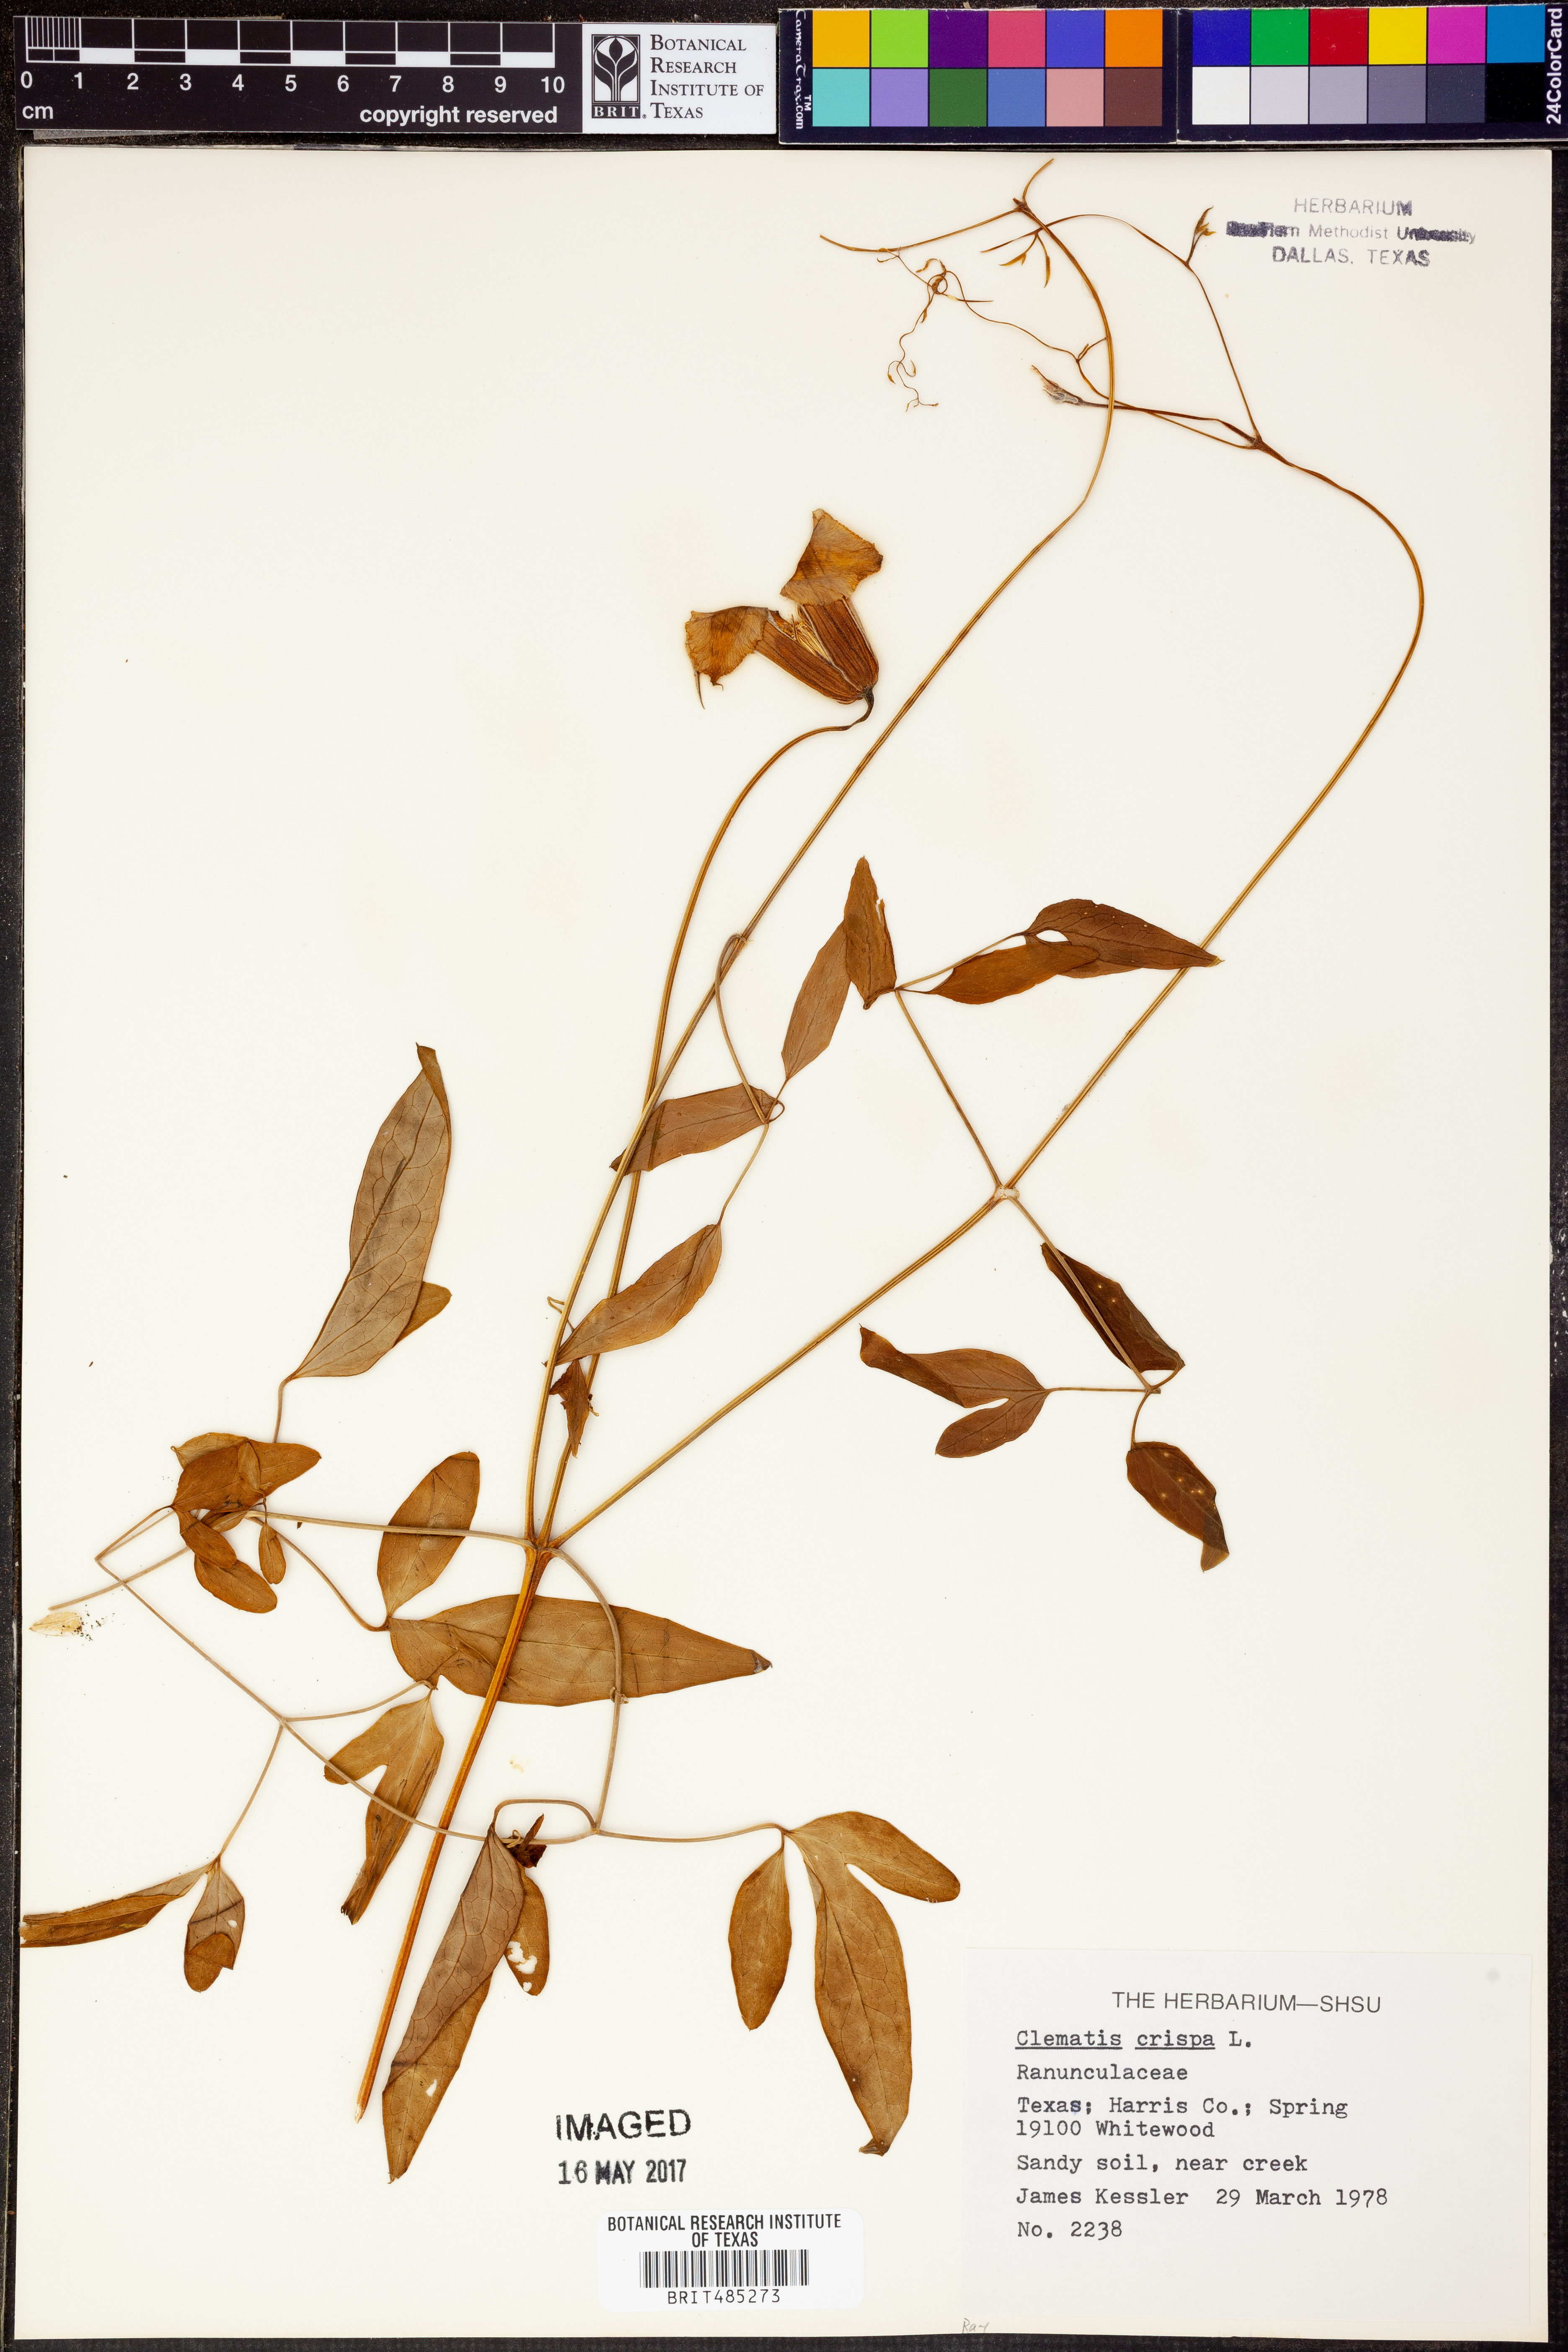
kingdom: Plantae
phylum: Tracheophyta
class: Magnoliopsida
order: Ranunculales
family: Ranunculaceae
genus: Clematis
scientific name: Clematis crispa
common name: Curly clematis
